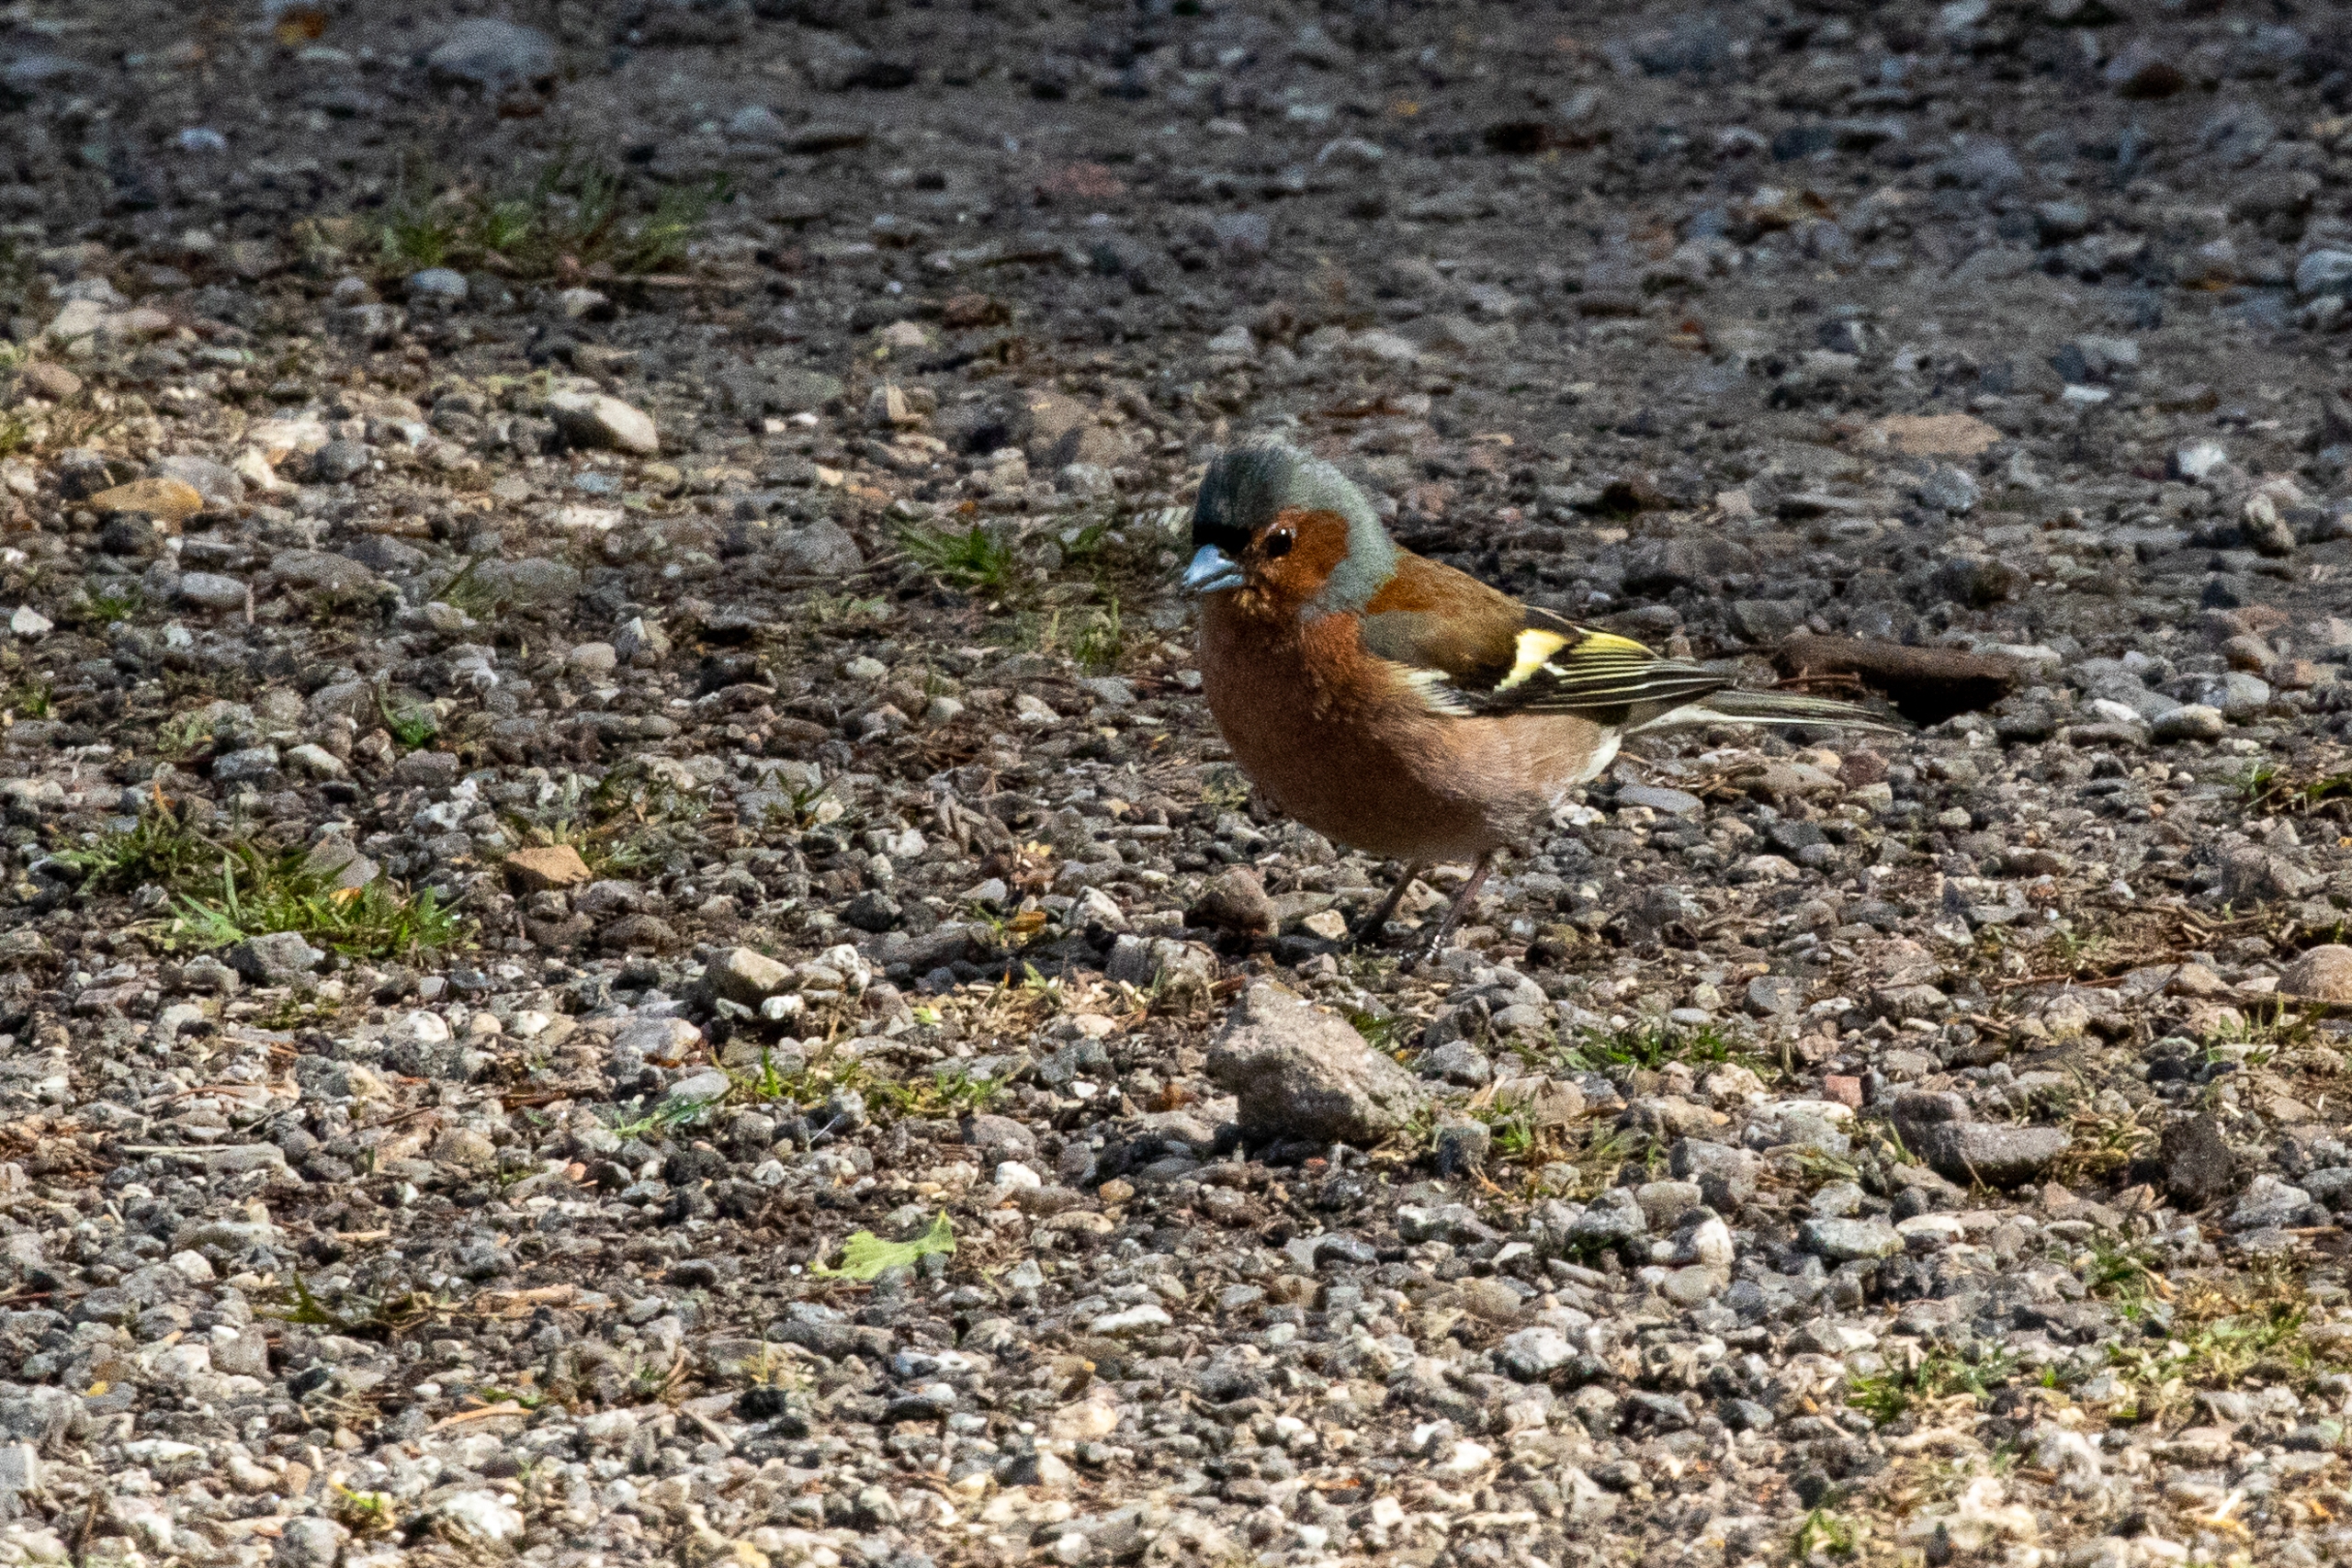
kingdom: Animalia
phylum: Chordata
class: Aves
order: Passeriformes
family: Fringillidae
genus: Fringilla
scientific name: Fringilla coelebs
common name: Bogfinke
